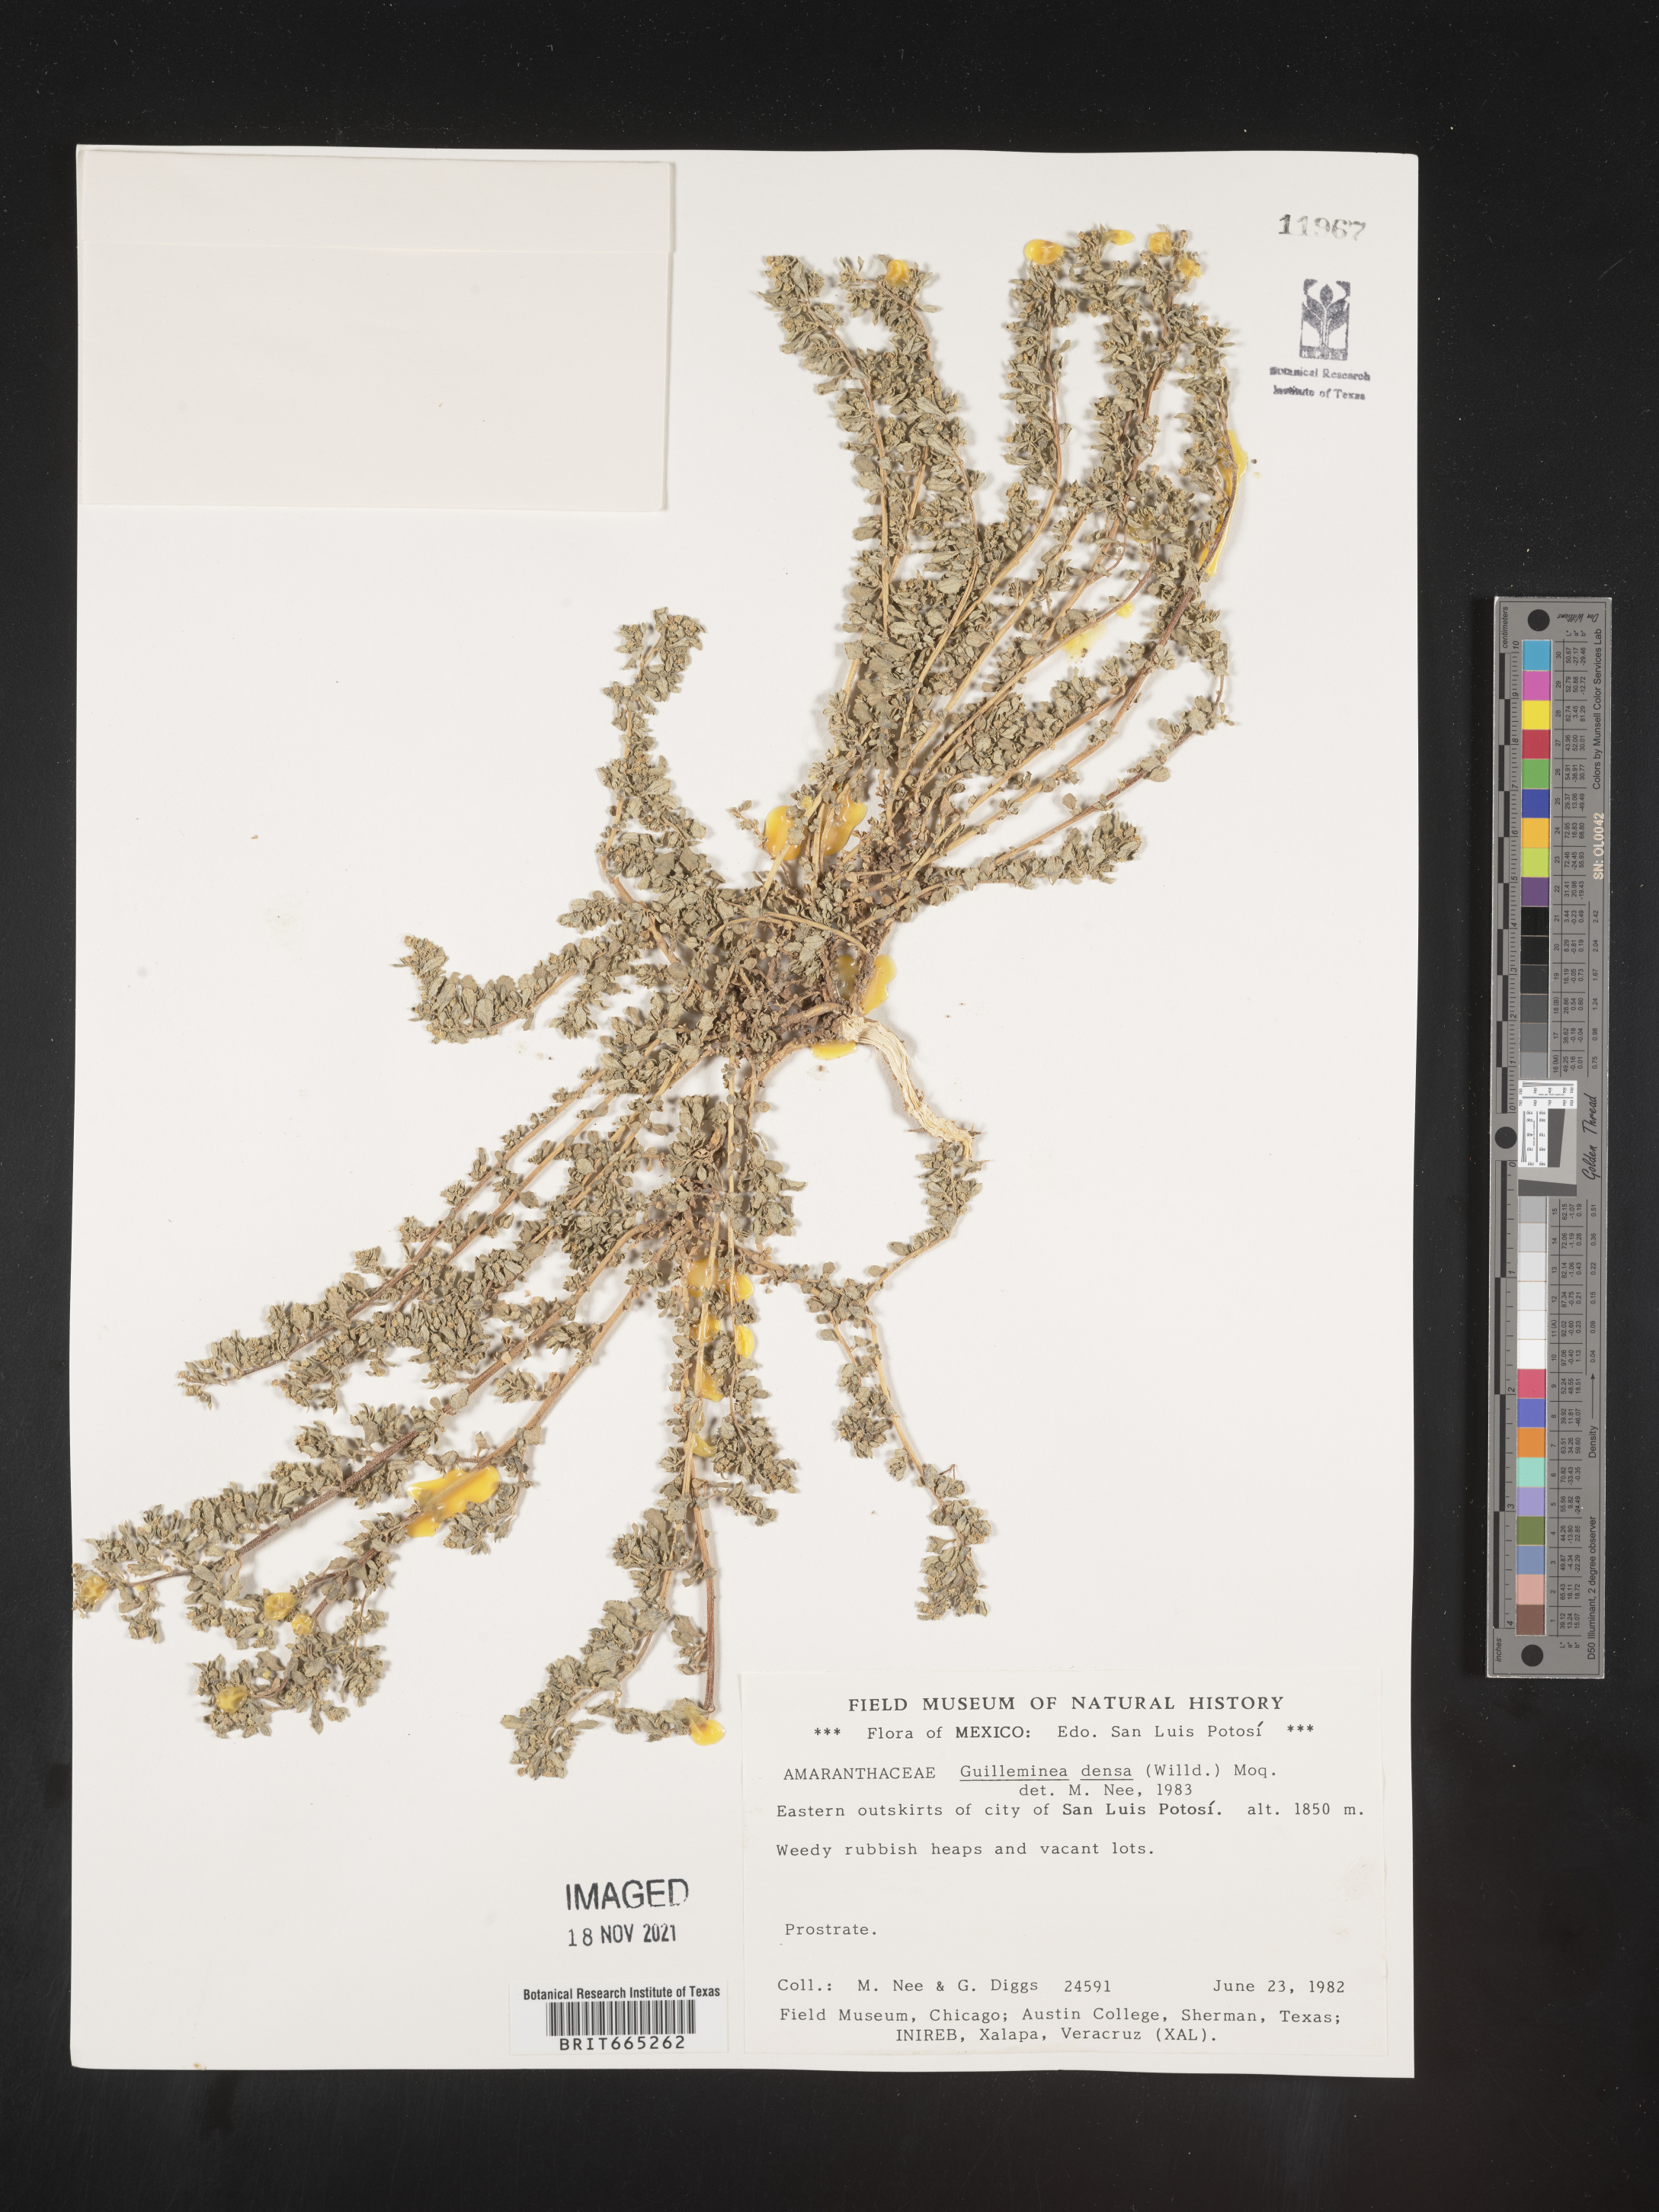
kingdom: Plantae
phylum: Tracheophyta
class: Magnoliopsida
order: Caryophyllales
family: Amaranthaceae
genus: Guilleminea
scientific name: Guilleminea densa
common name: Small matweed
